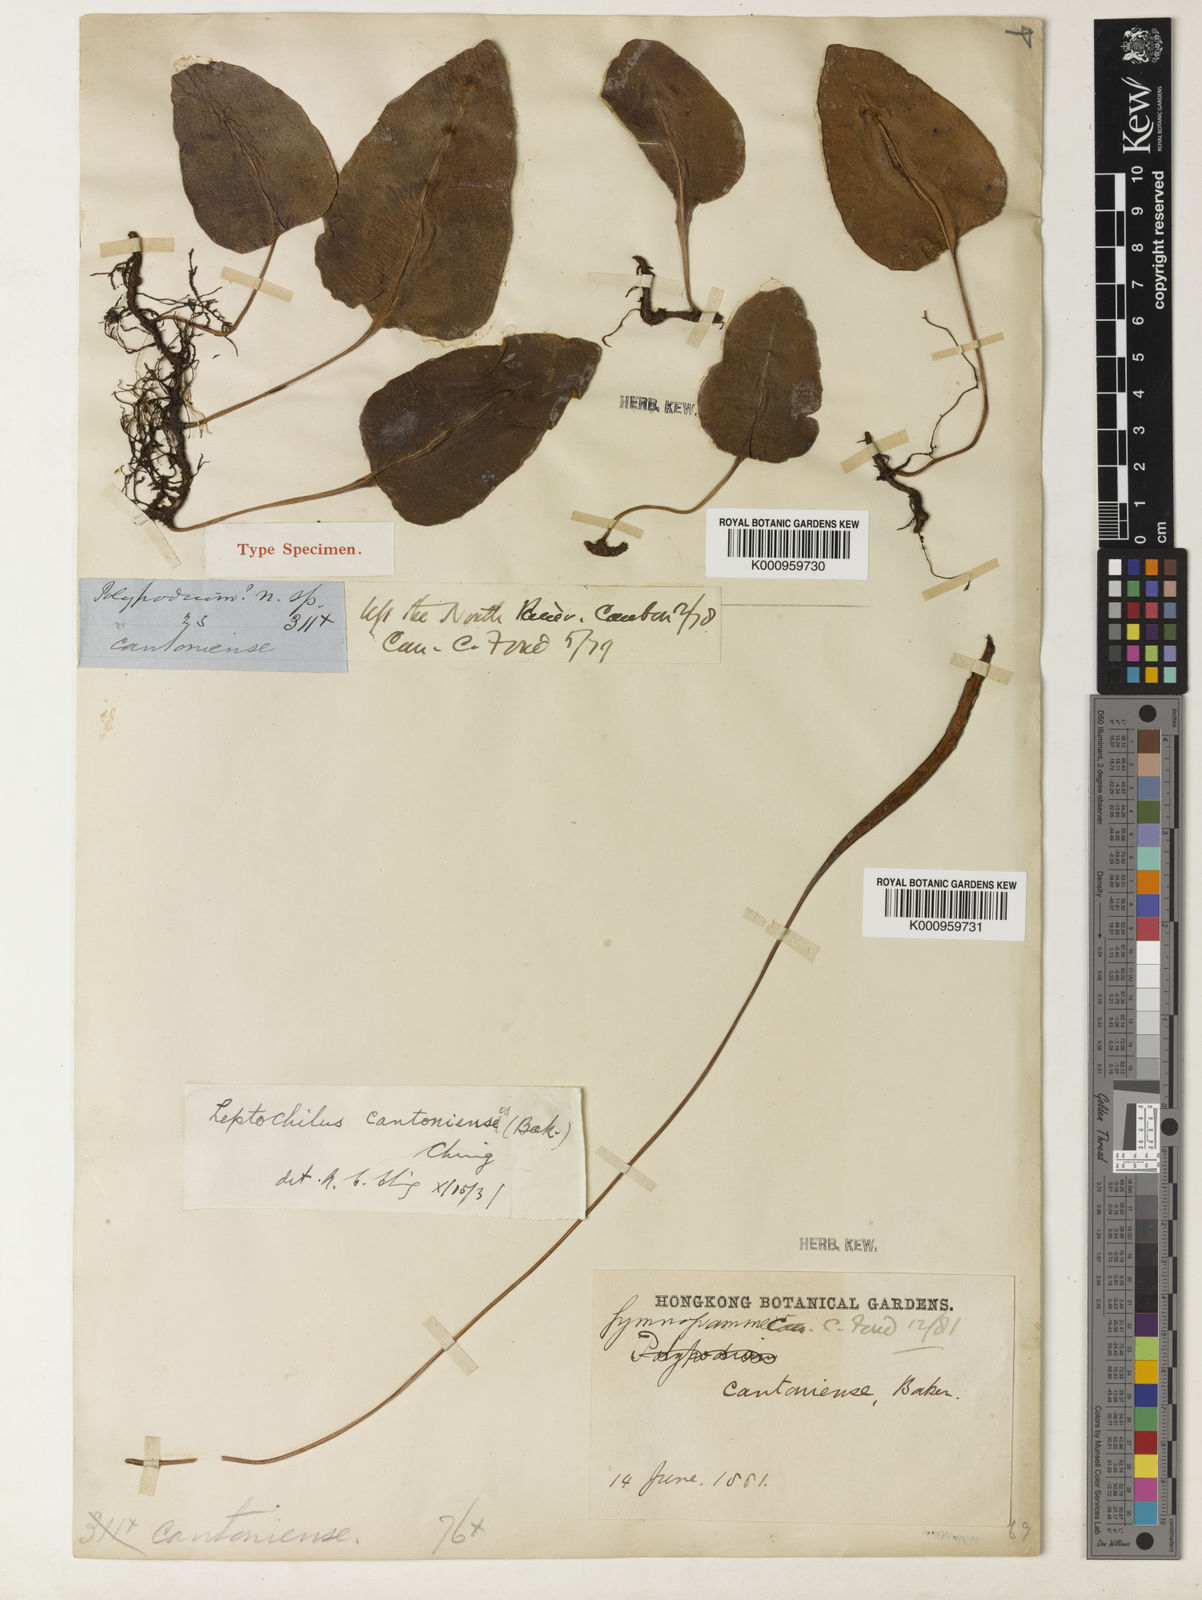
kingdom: Plantae
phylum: Tracheophyta
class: Polypodiopsida
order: Polypodiales
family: Polypodiaceae
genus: Leptochilus
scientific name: Leptochilus cantoniensis
